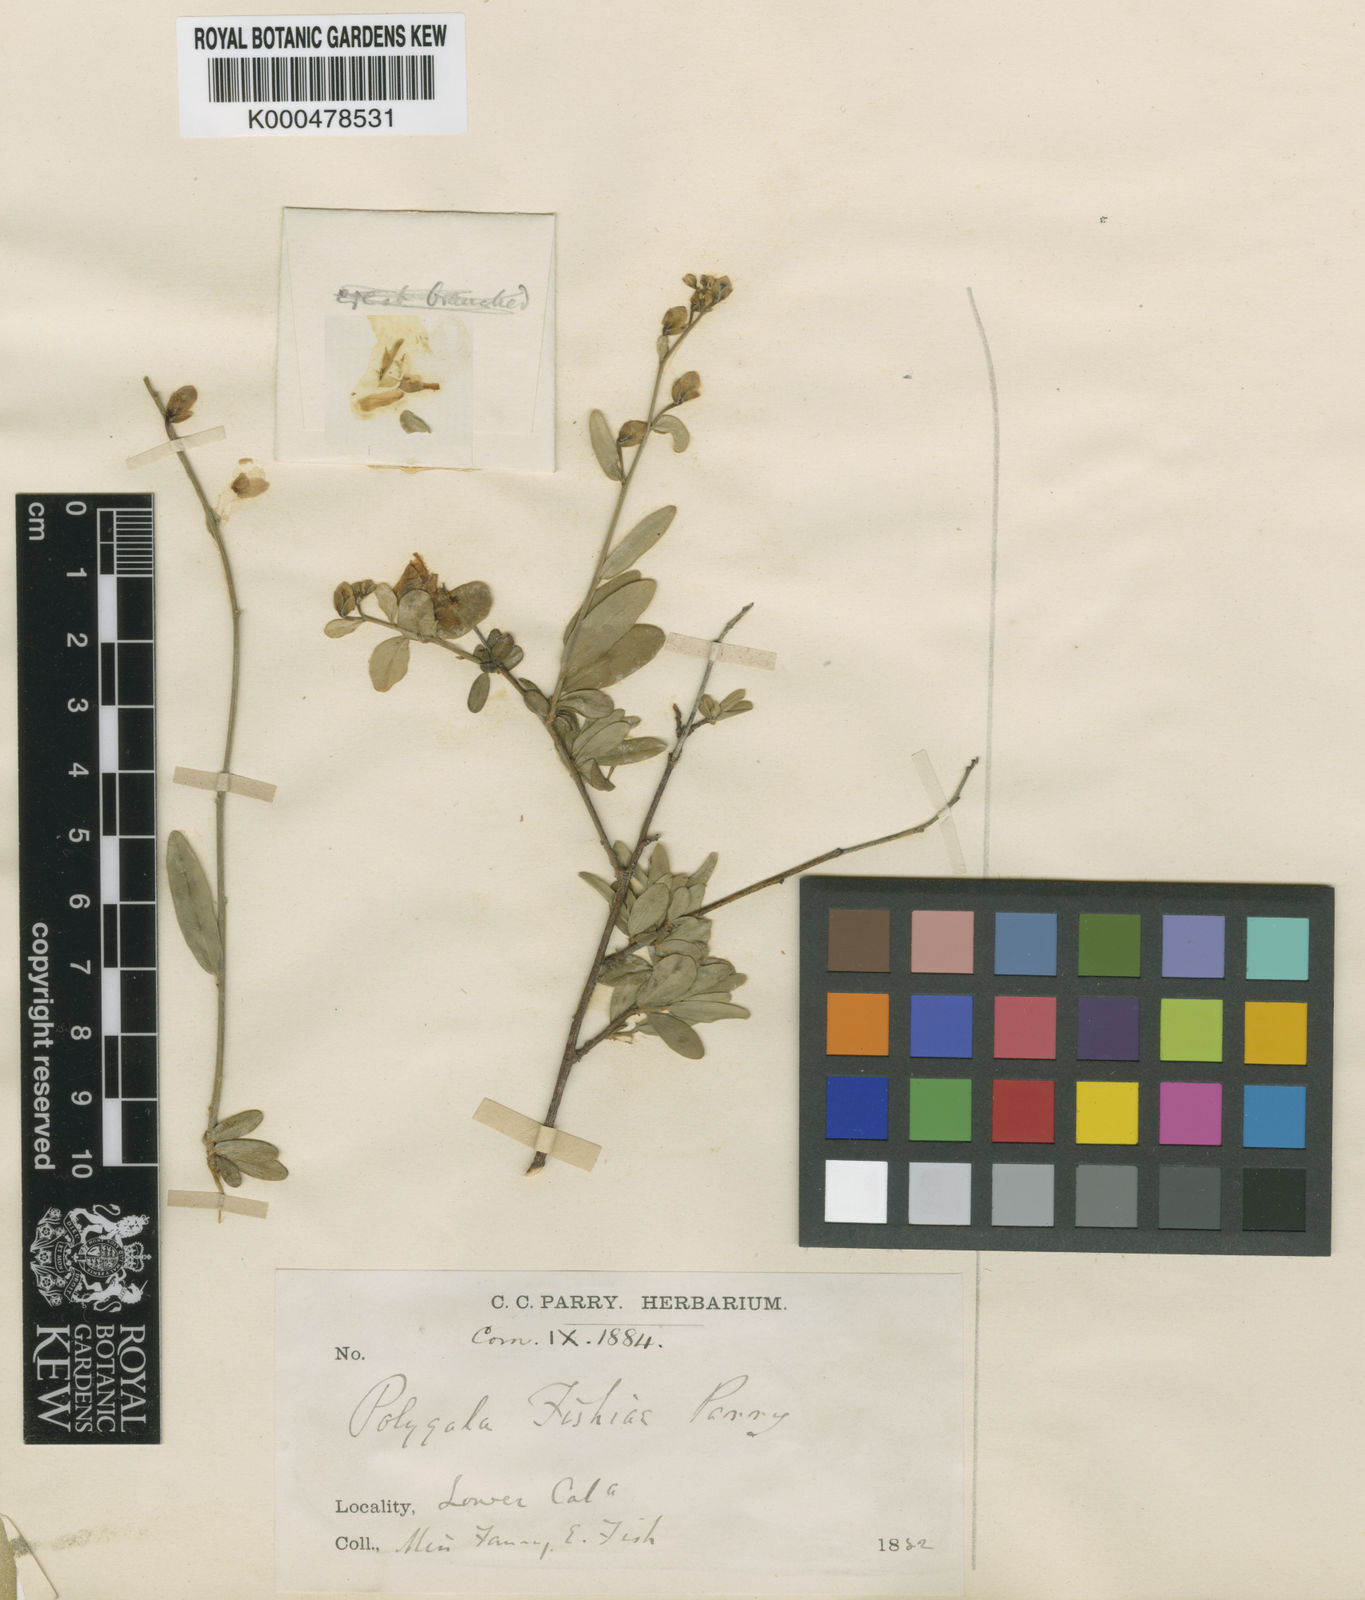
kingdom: Plantae
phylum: Tracheophyta
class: Magnoliopsida
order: Fabales
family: Polygalaceae
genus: Rhinotropis
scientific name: Rhinotropis
